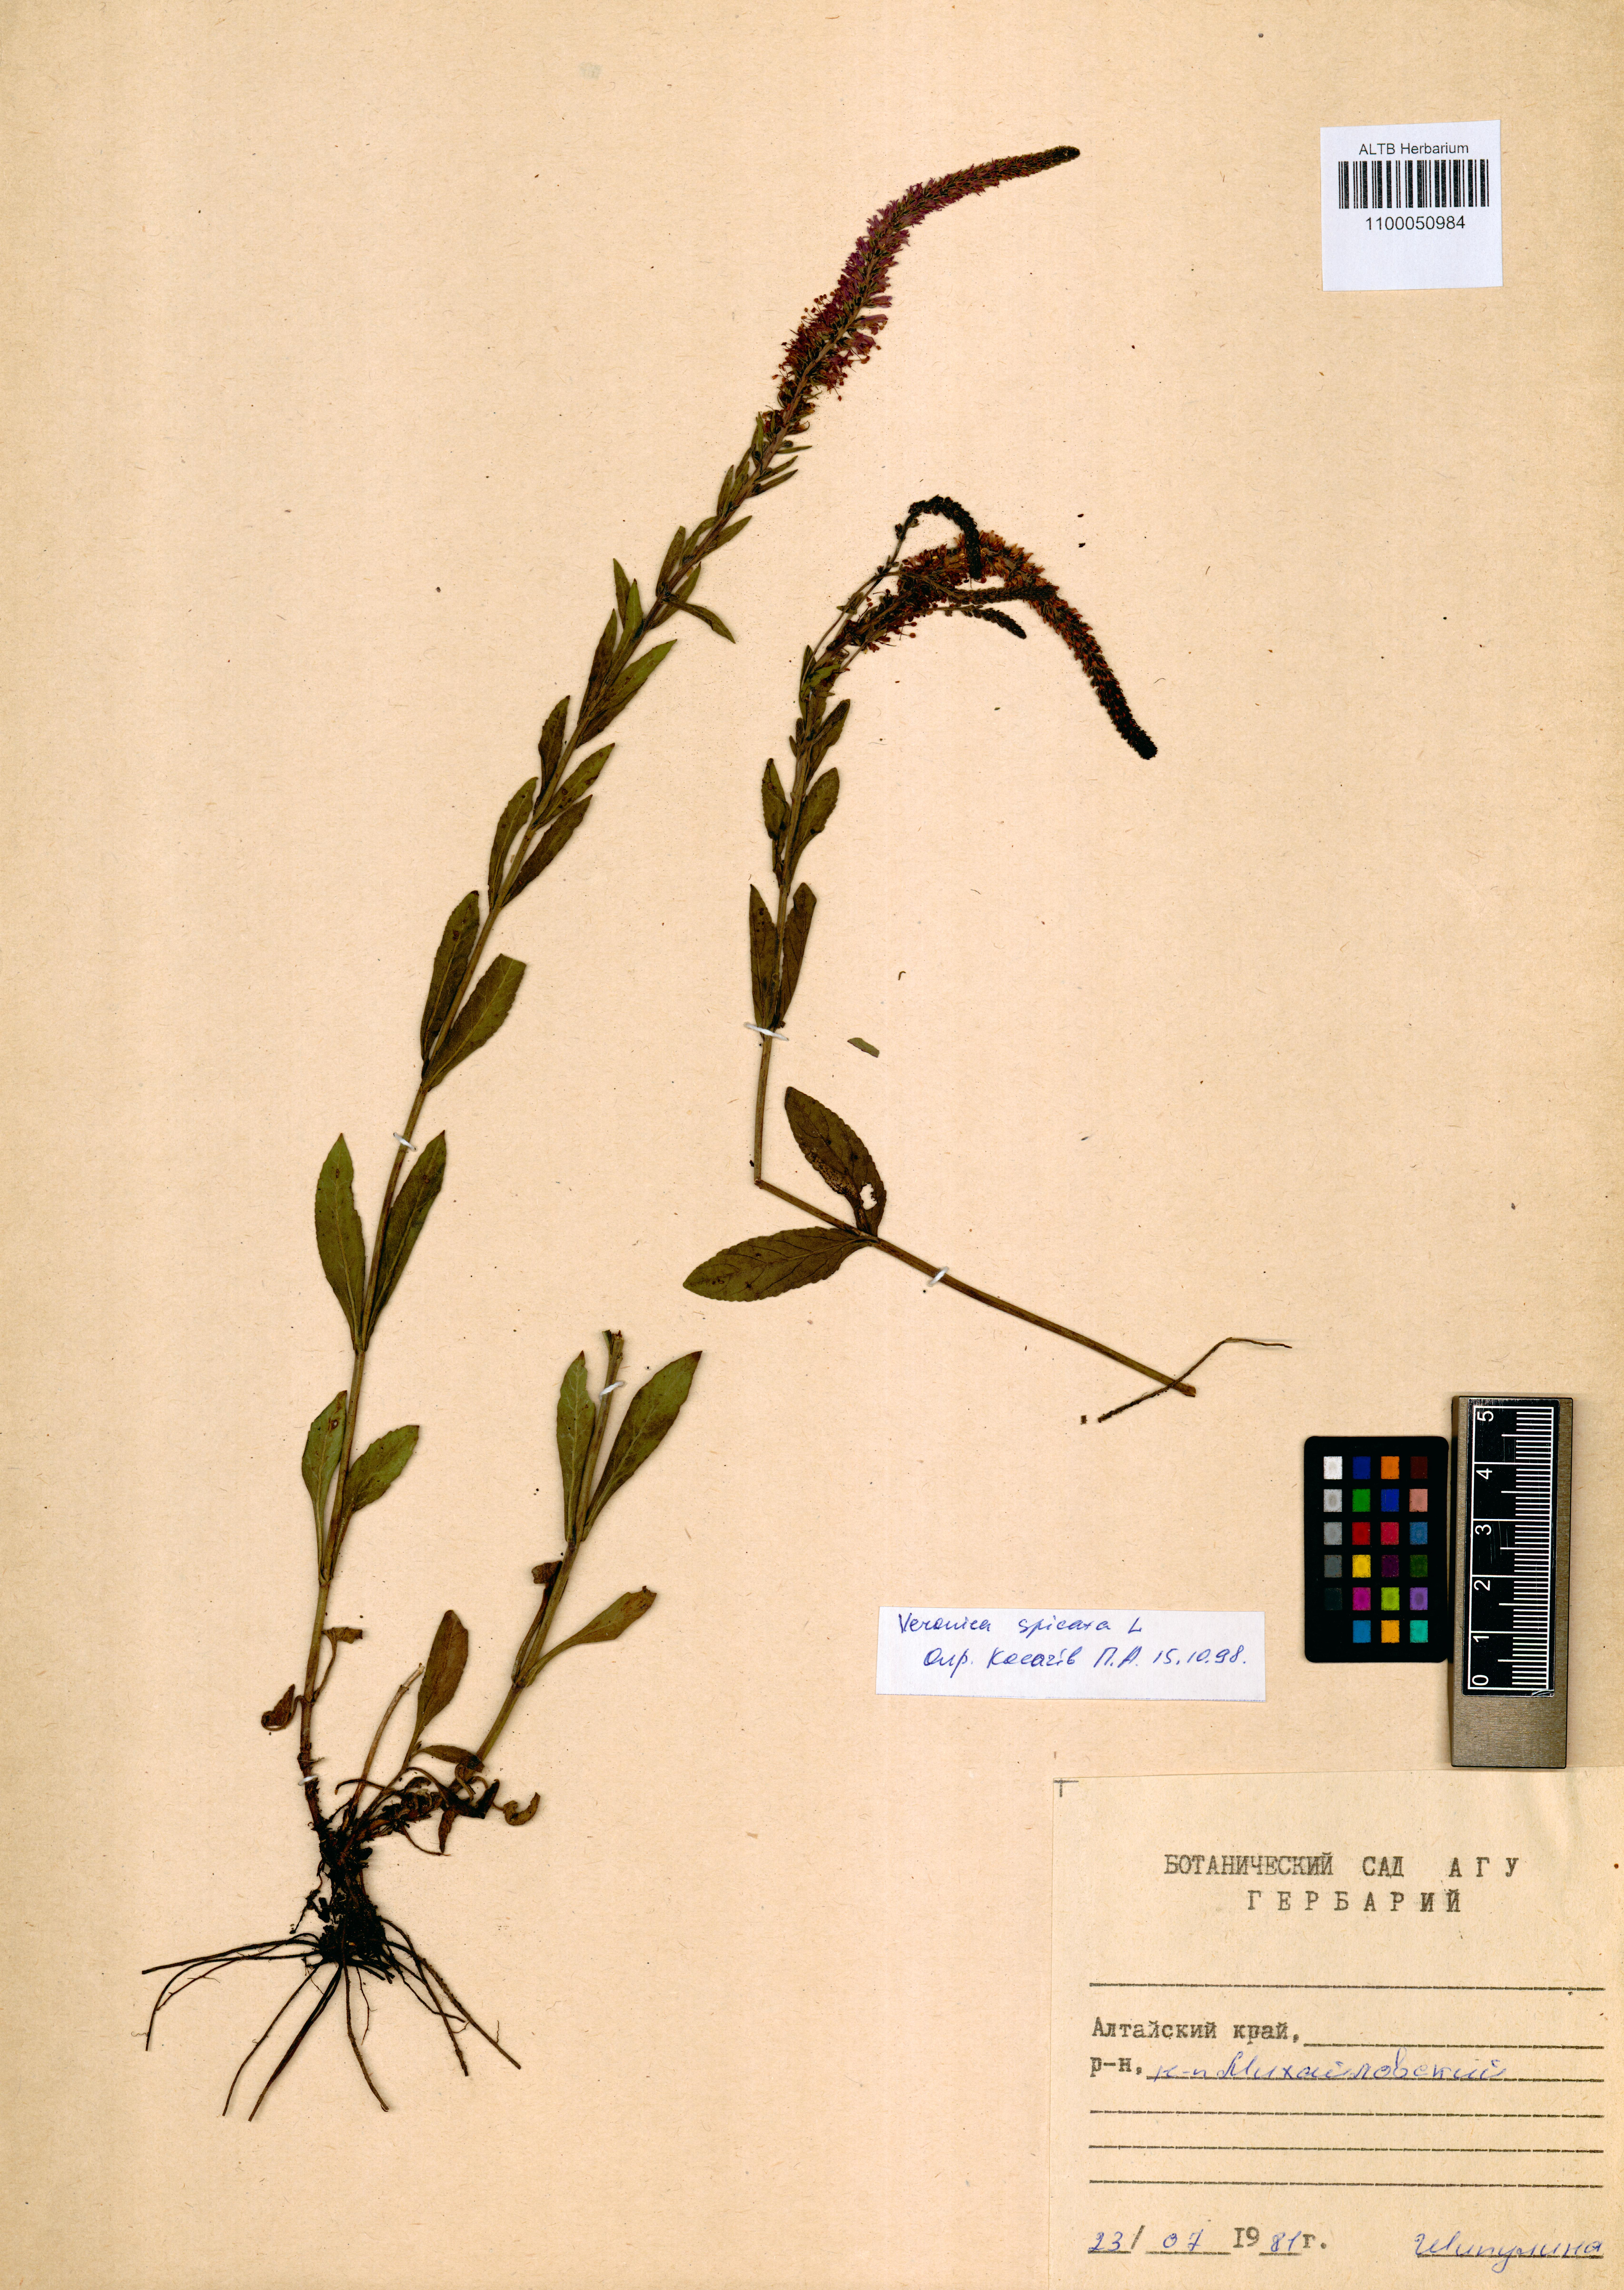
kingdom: Plantae
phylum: Tracheophyta
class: Magnoliopsida
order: Lamiales
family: Plantaginaceae
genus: Veronica
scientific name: Veronica spicata
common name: Spiked speedwell
